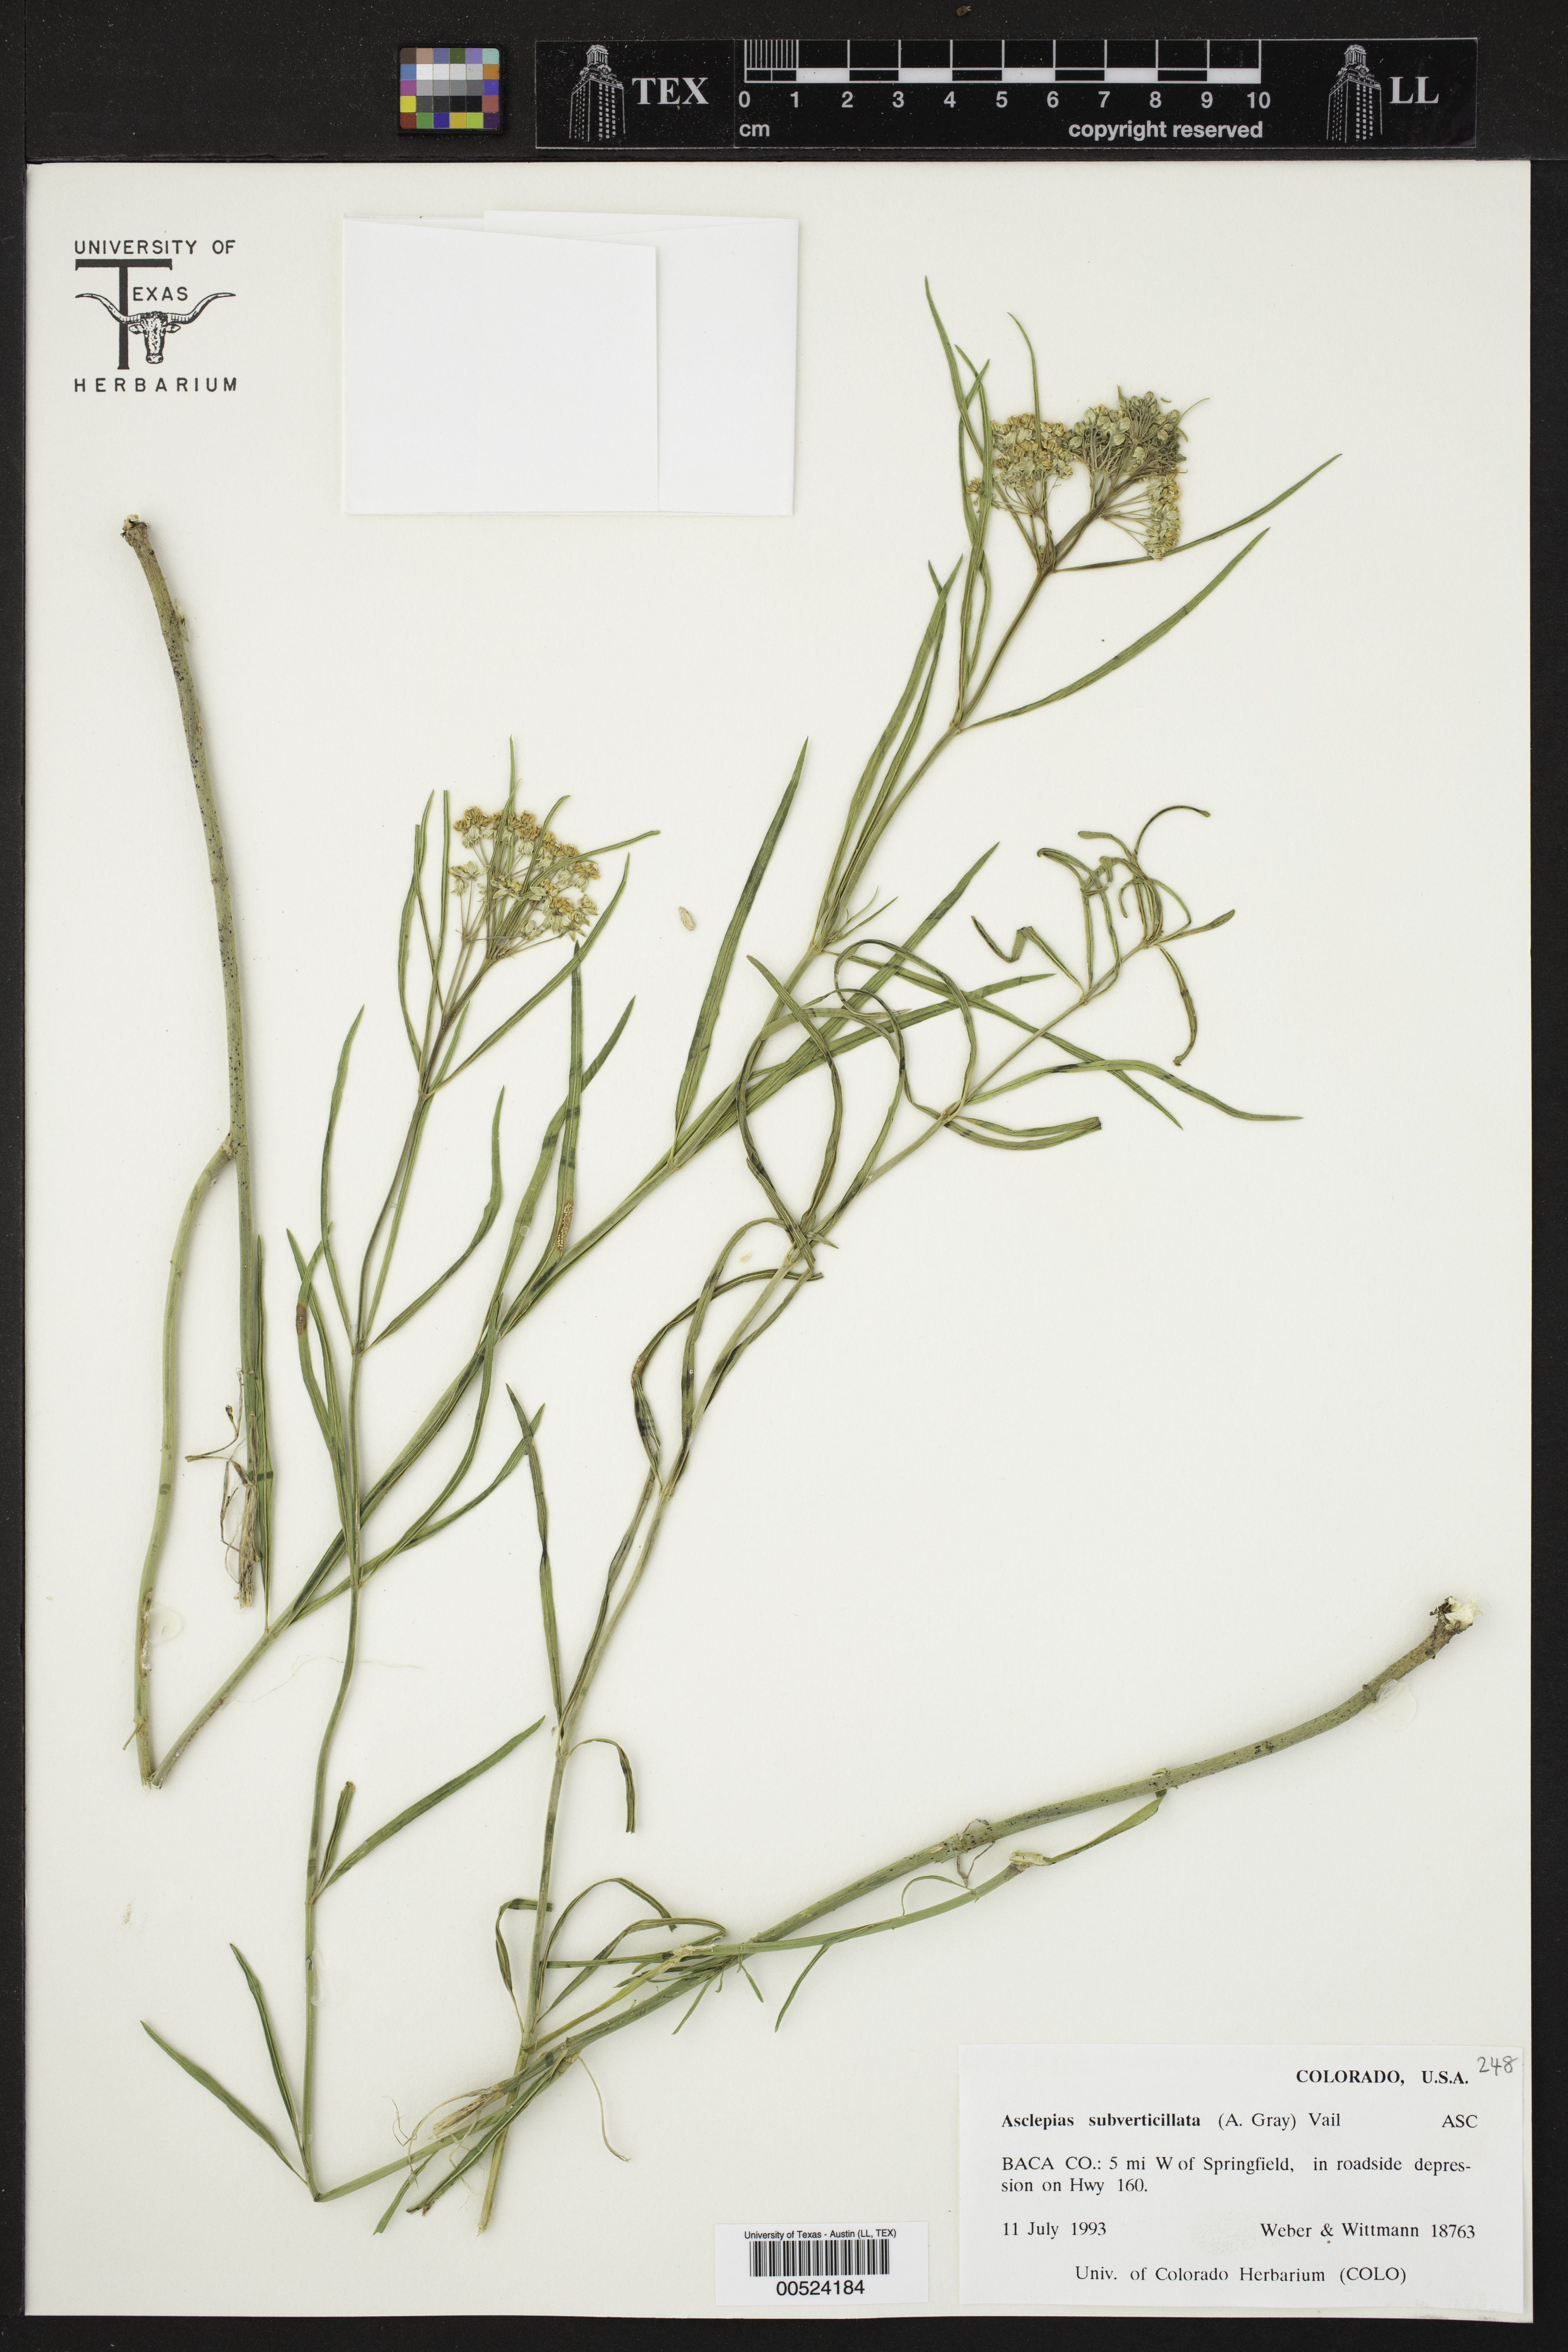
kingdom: Plantae
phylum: Tracheophyta
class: Magnoliopsida
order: Gentianales
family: Apocynaceae
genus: Asclepias
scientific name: Asclepias subverticillata
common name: Horsetail milkweed
